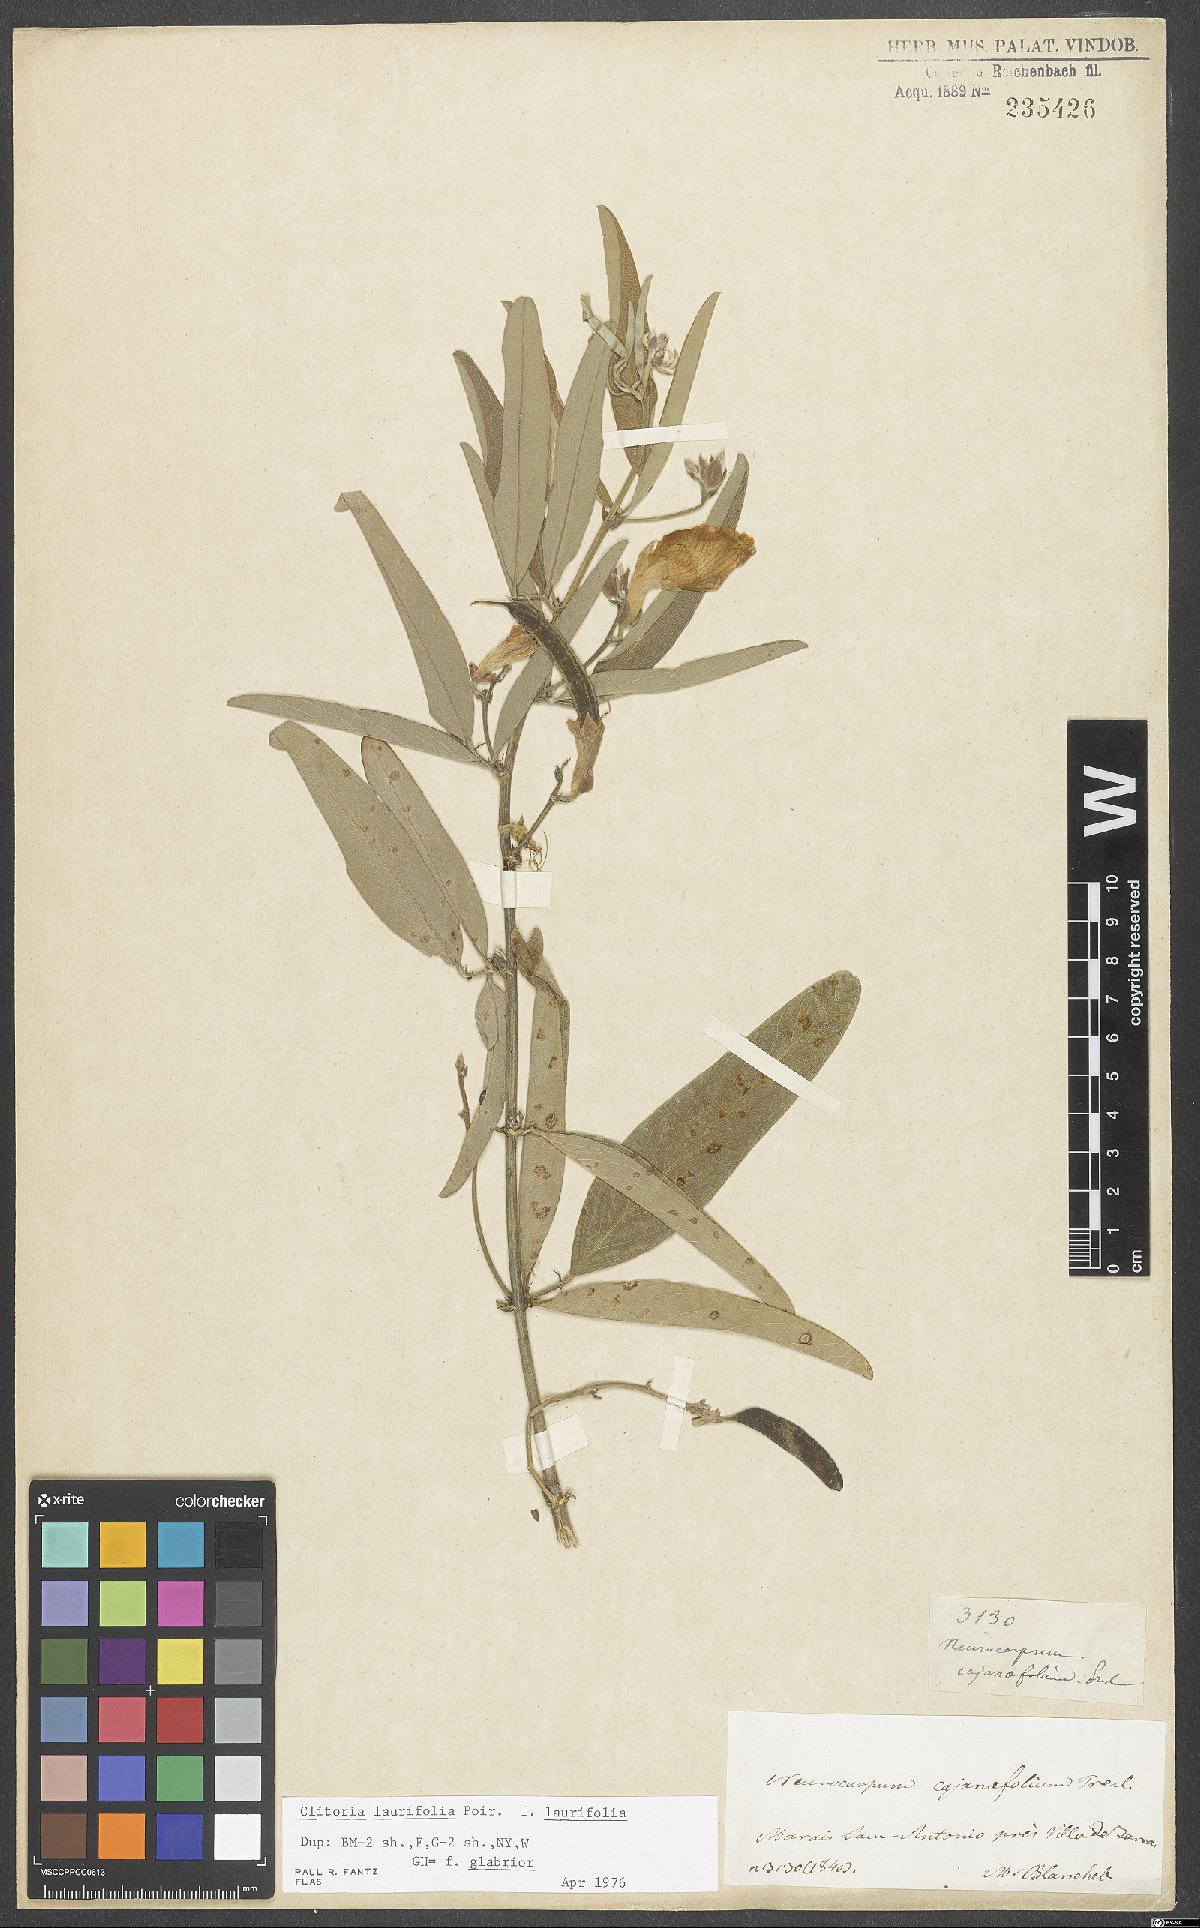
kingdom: Plantae
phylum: Tracheophyta
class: Magnoliopsida
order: Fabales
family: Fabaceae
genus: Clitoria
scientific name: Clitoria laurifolia
